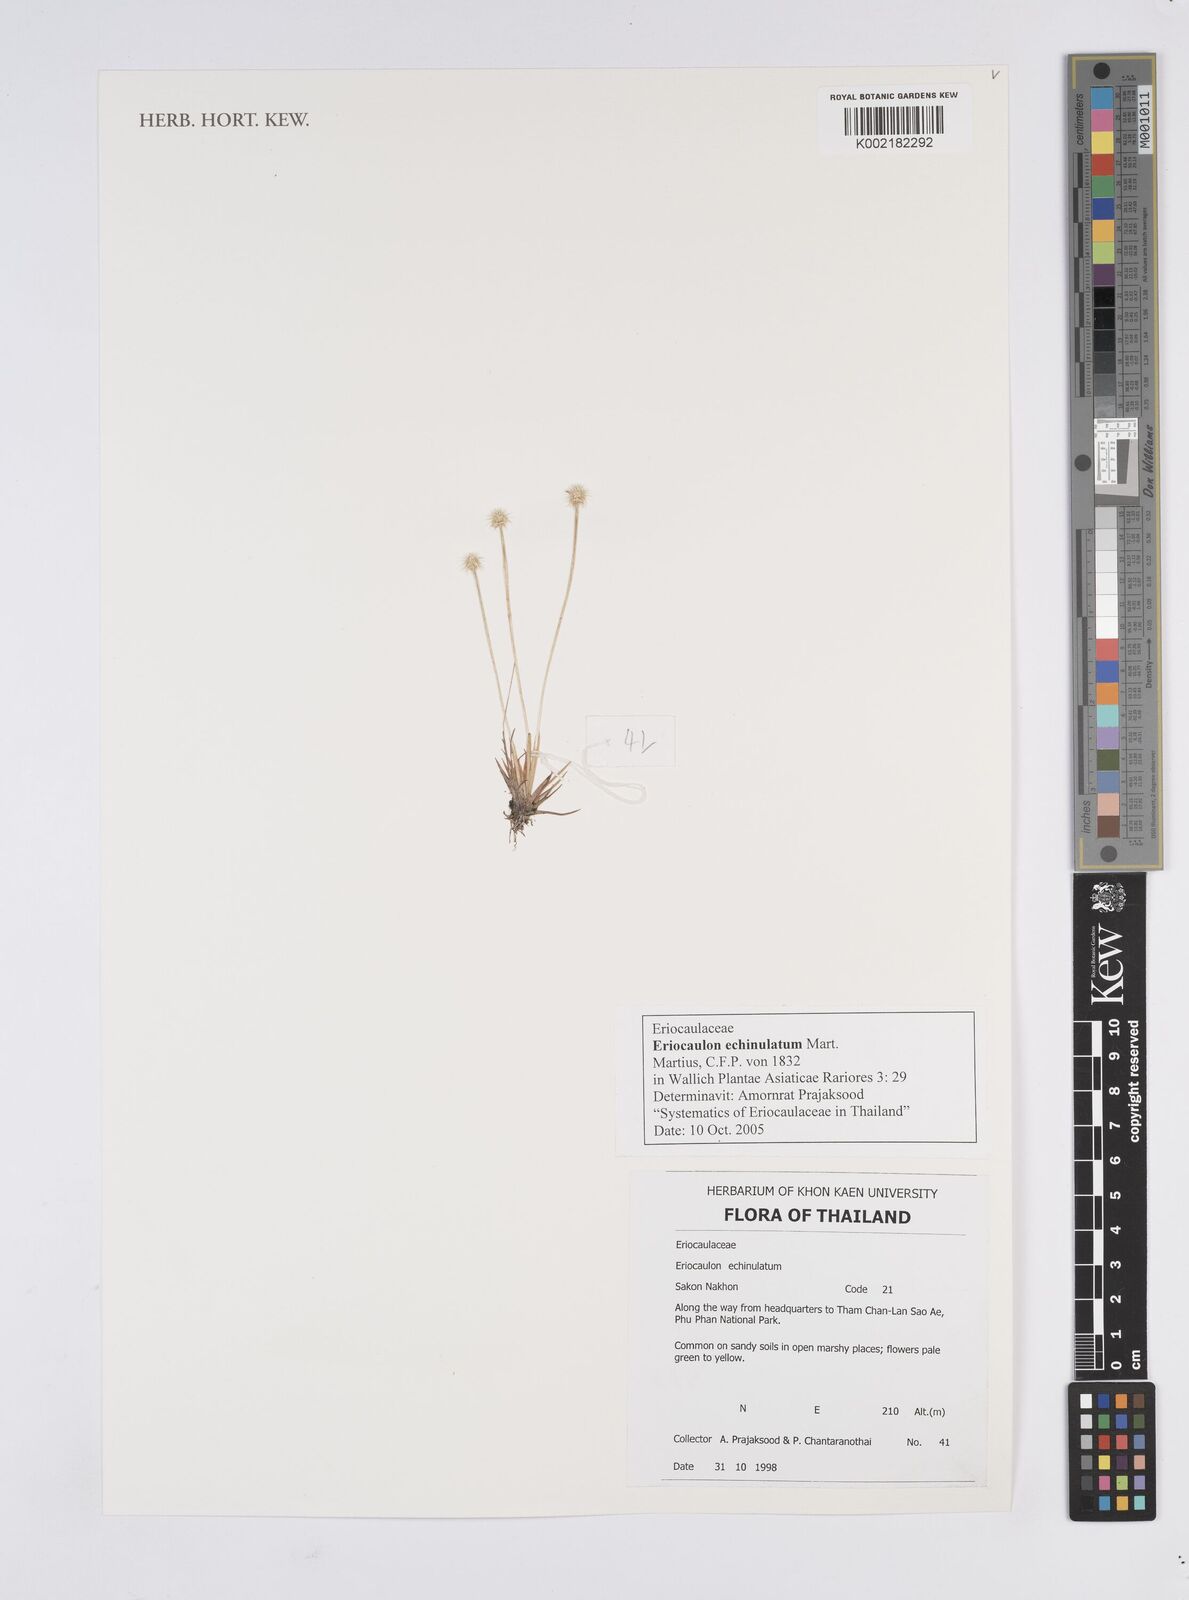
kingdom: Plantae
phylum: Tracheophyta
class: Liliopsida
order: Poales
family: Eriocaulaceae
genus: Eriocaulon
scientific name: Eriocaulon echinulatum
